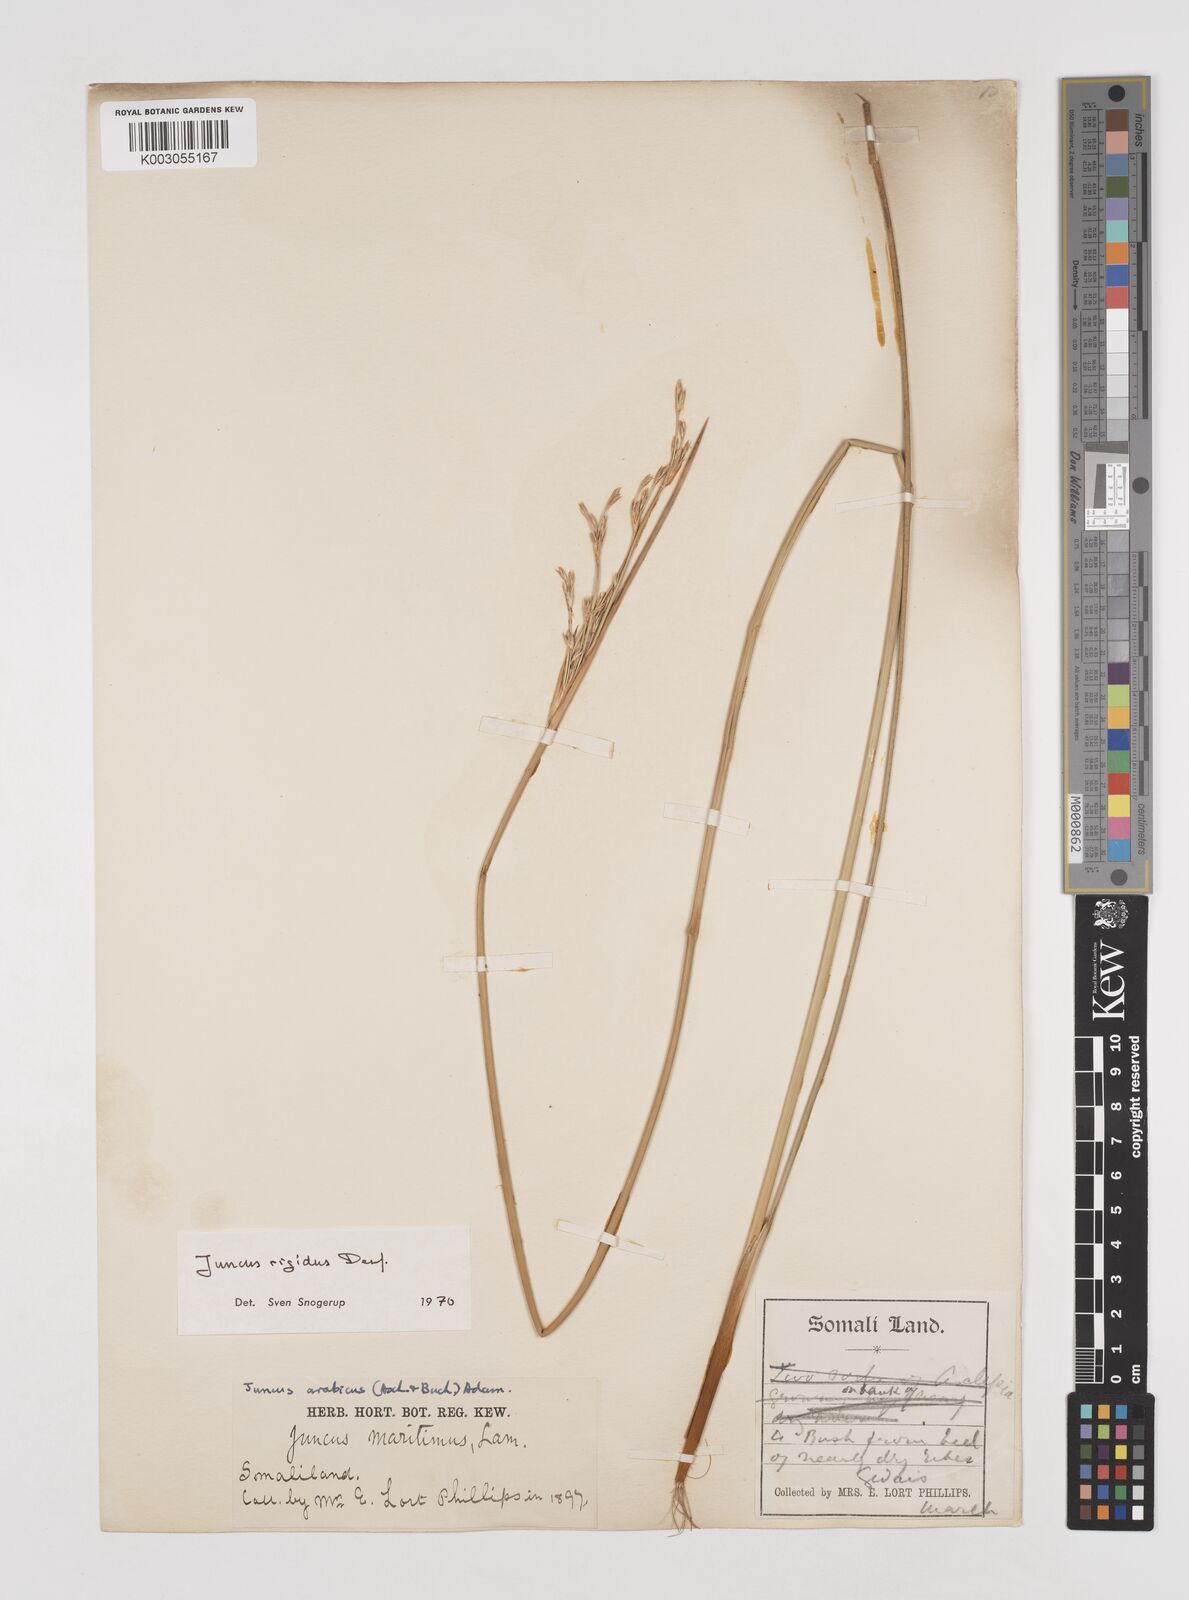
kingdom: Plantae
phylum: Tracheophyta
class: Liliopsida
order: Poales
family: Juncaceae
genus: Juncus
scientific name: Juncus rigidus
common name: Hard sea rush
